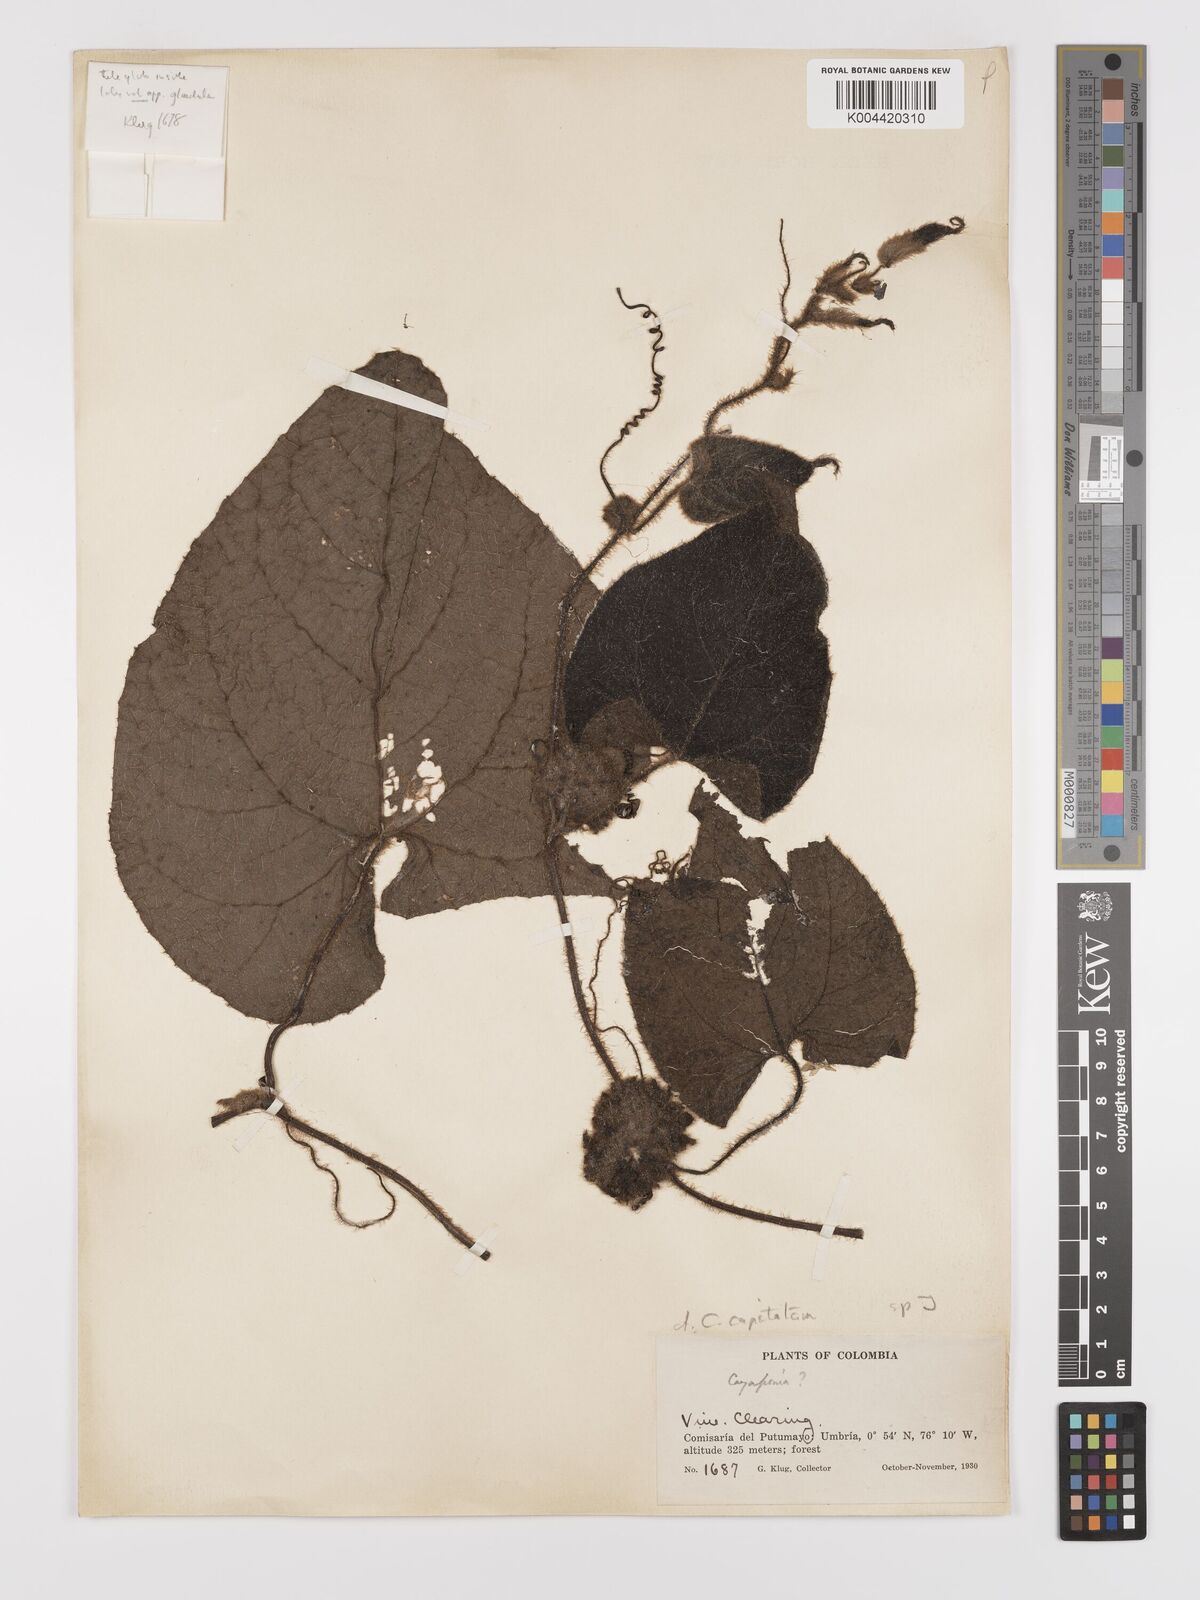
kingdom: Plantae
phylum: Tracheophyta
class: Magnoliopsida
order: Cucurbitales
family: Cucurbitaceae
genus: Cayaponia
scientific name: Cayaponia capitata
